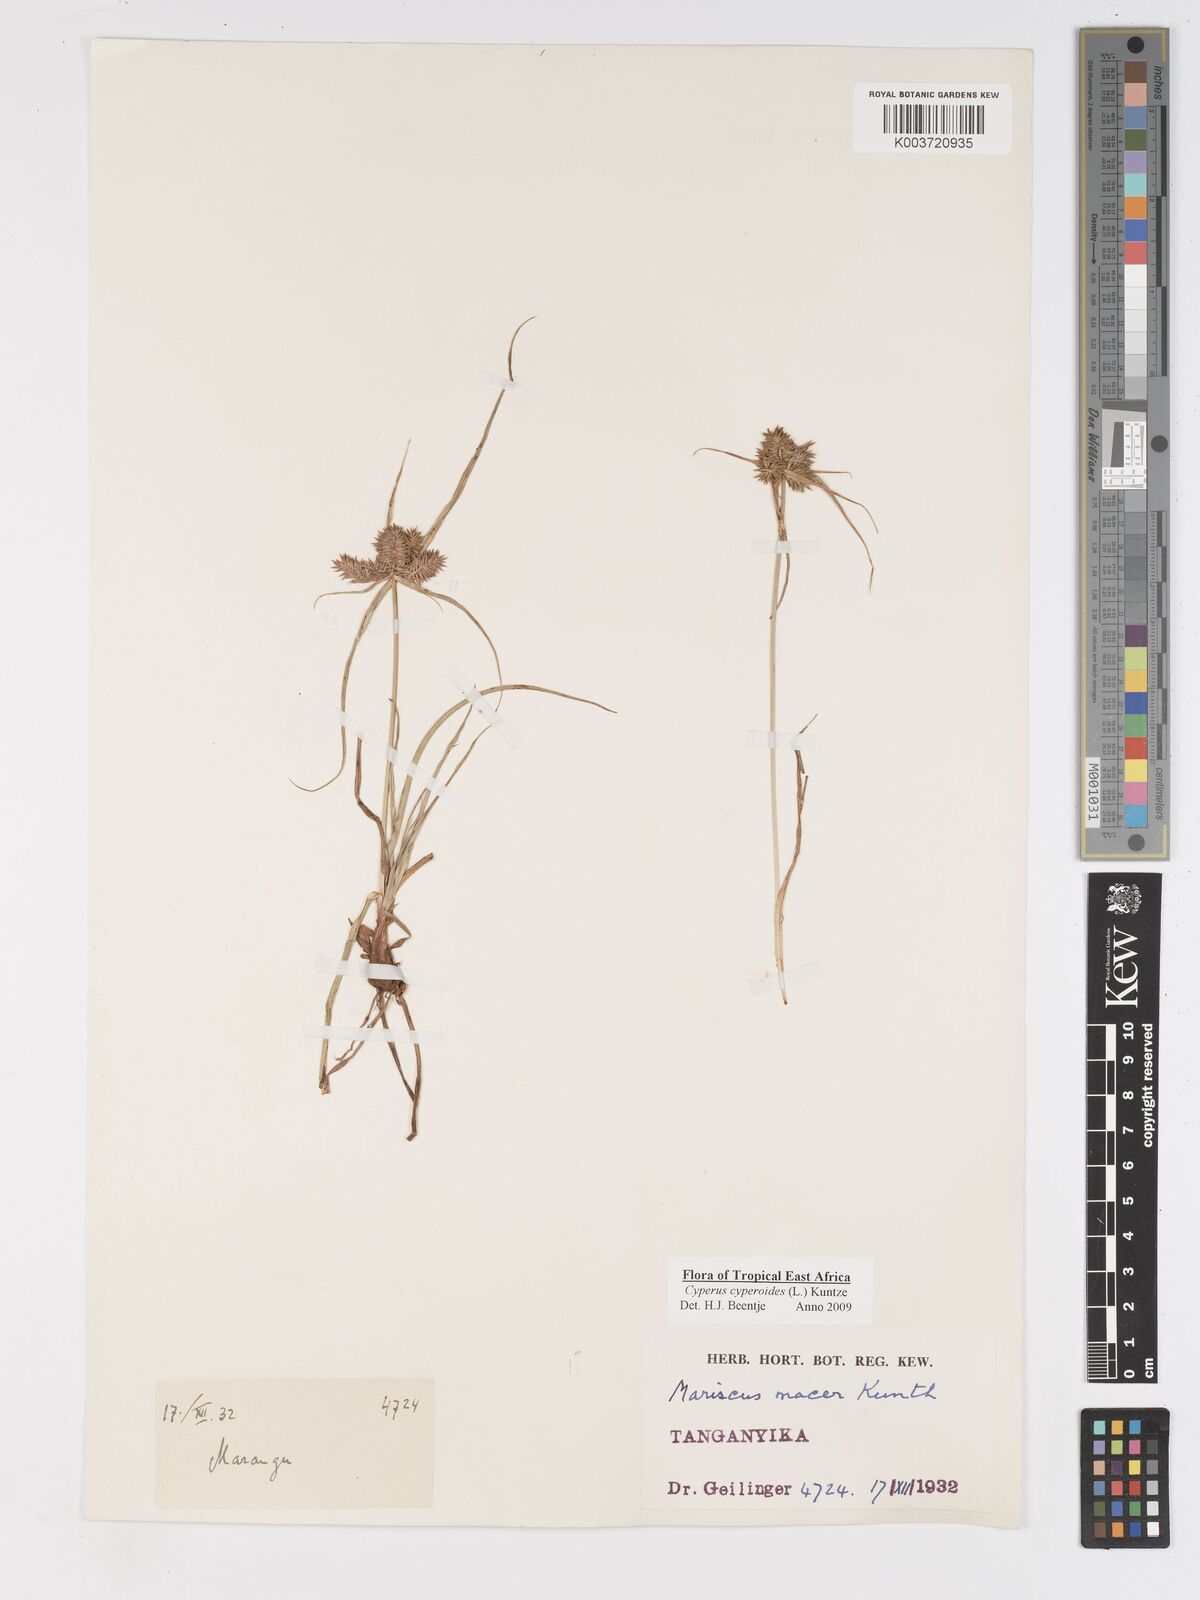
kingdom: Plantae
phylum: Tracheophyta
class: Liliopsida
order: Poales
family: Cyperaceae
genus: Cyperus
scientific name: Cyperus macrocarpus
